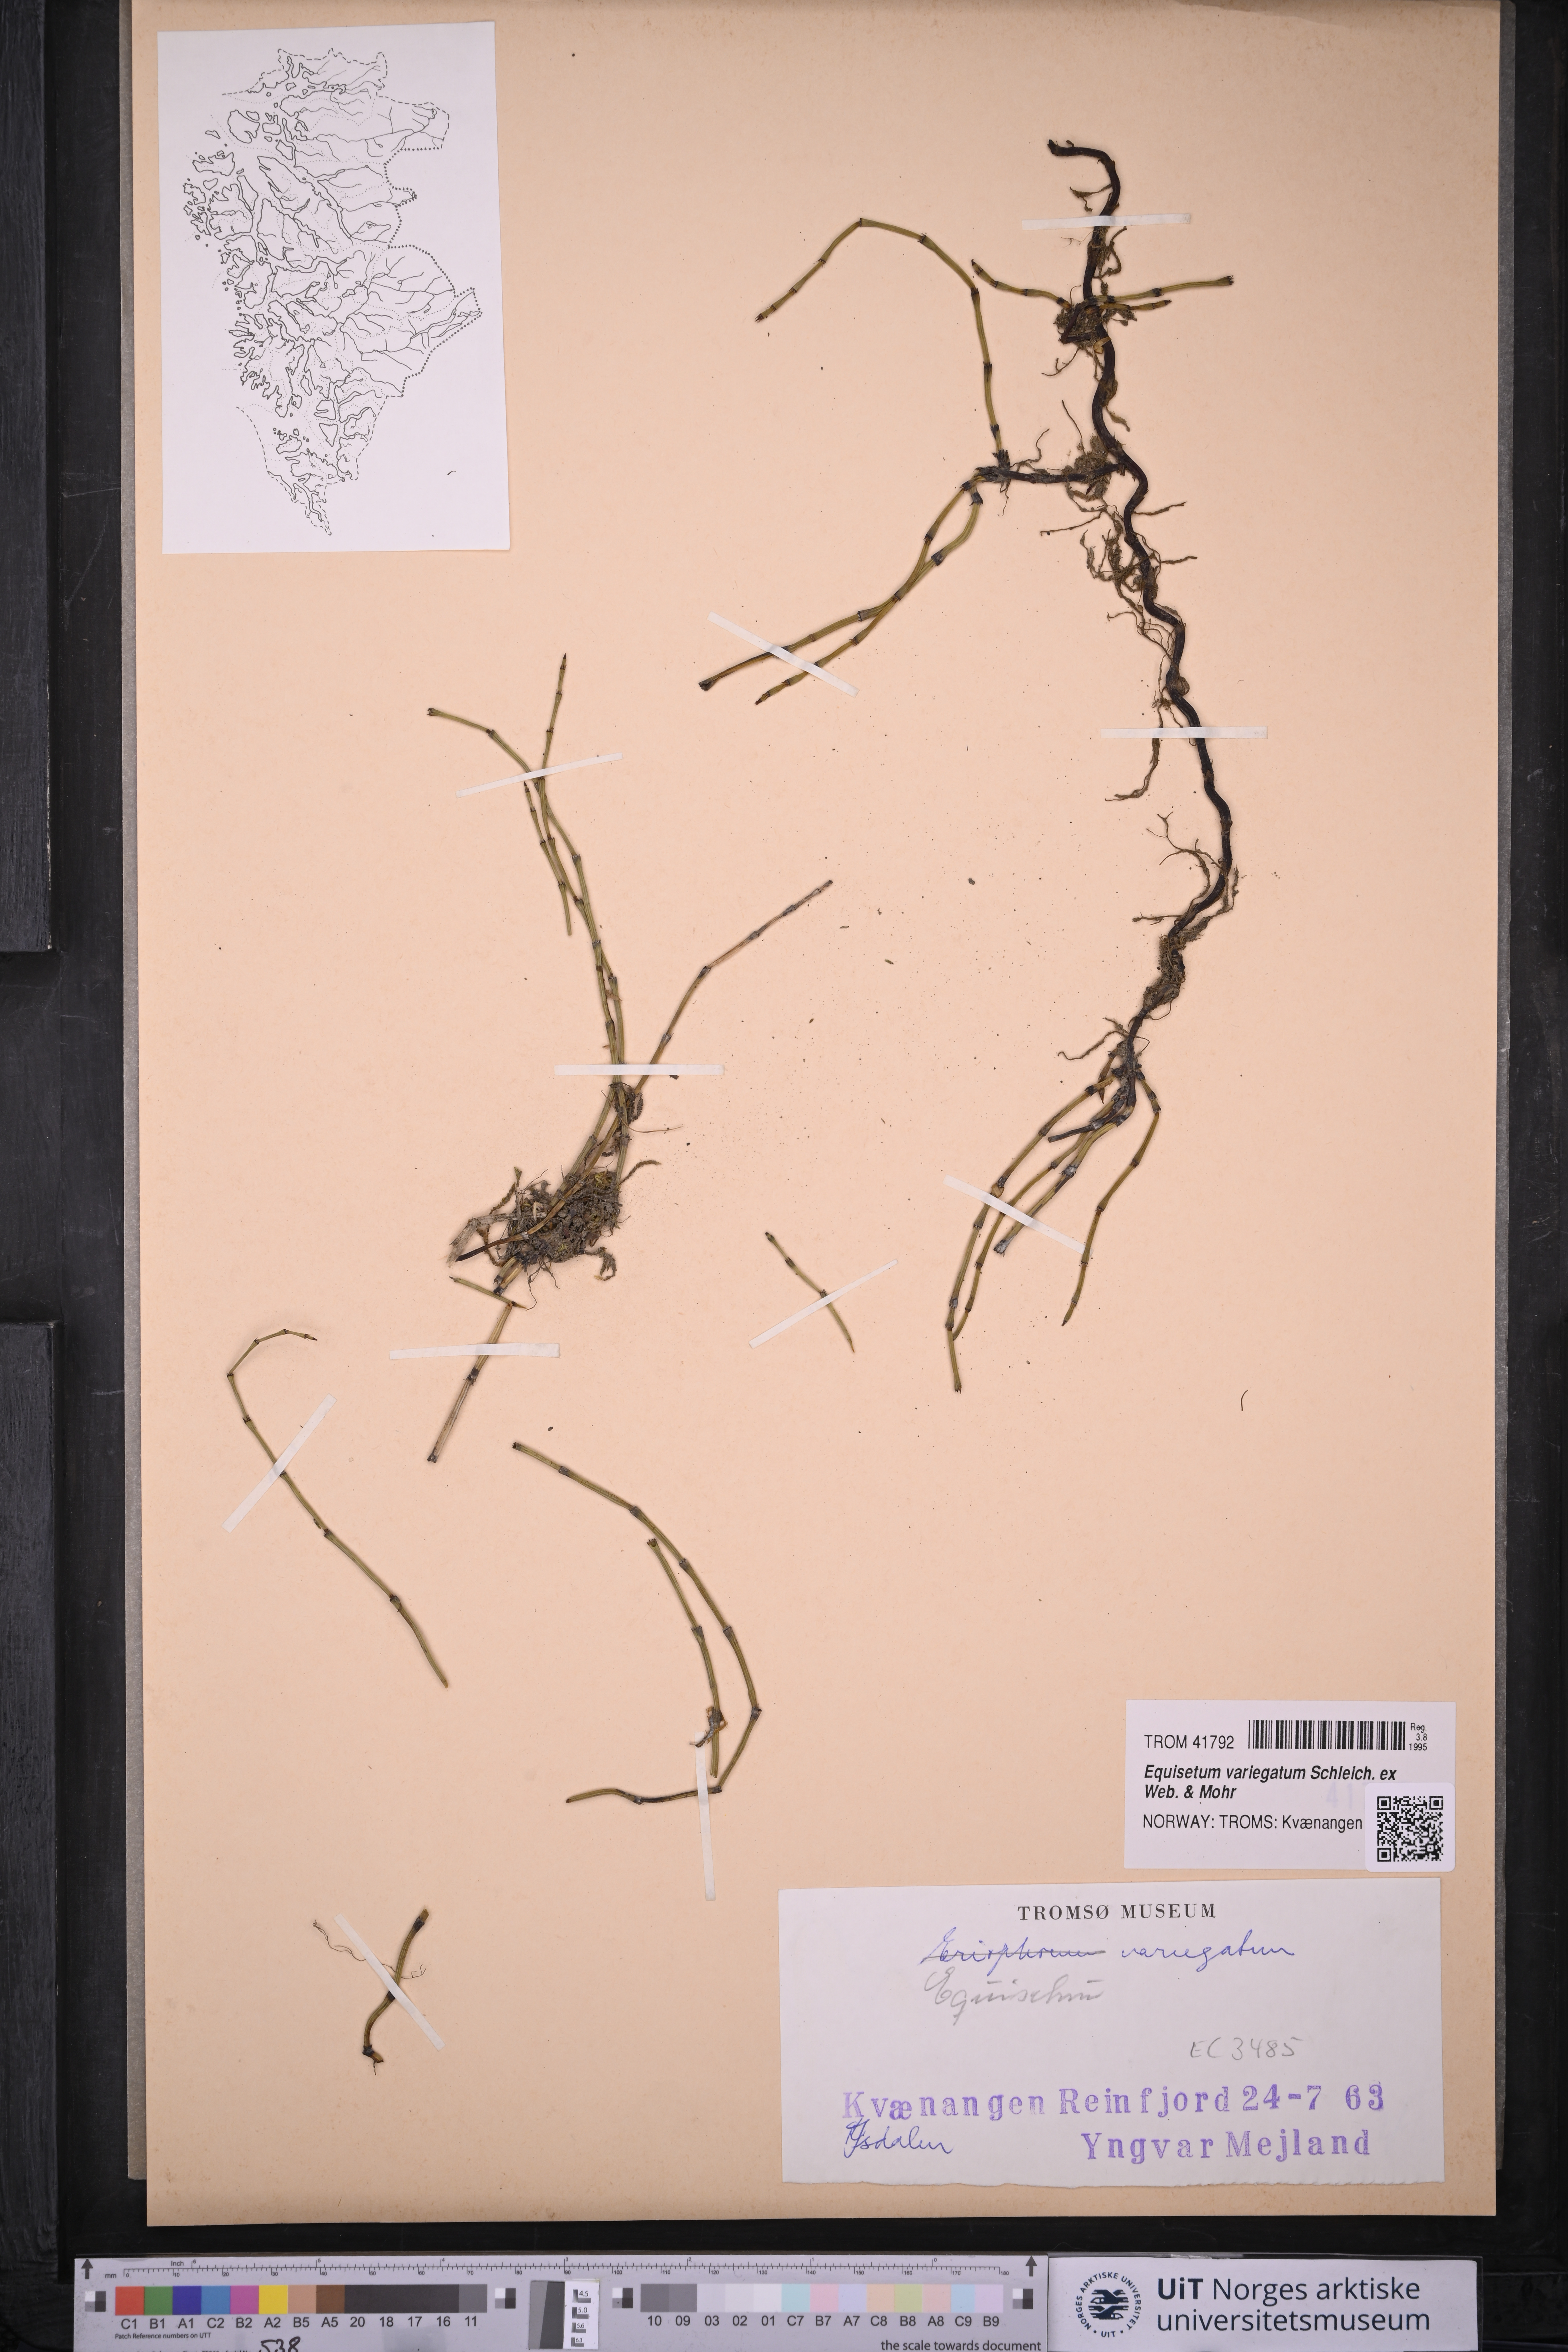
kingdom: Plantae
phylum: Tracheophyta
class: Polypodiopsida
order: Equisetales
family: Equisetaceae
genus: Equisetum
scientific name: Equisetum variegatum
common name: Variegated horsetail
